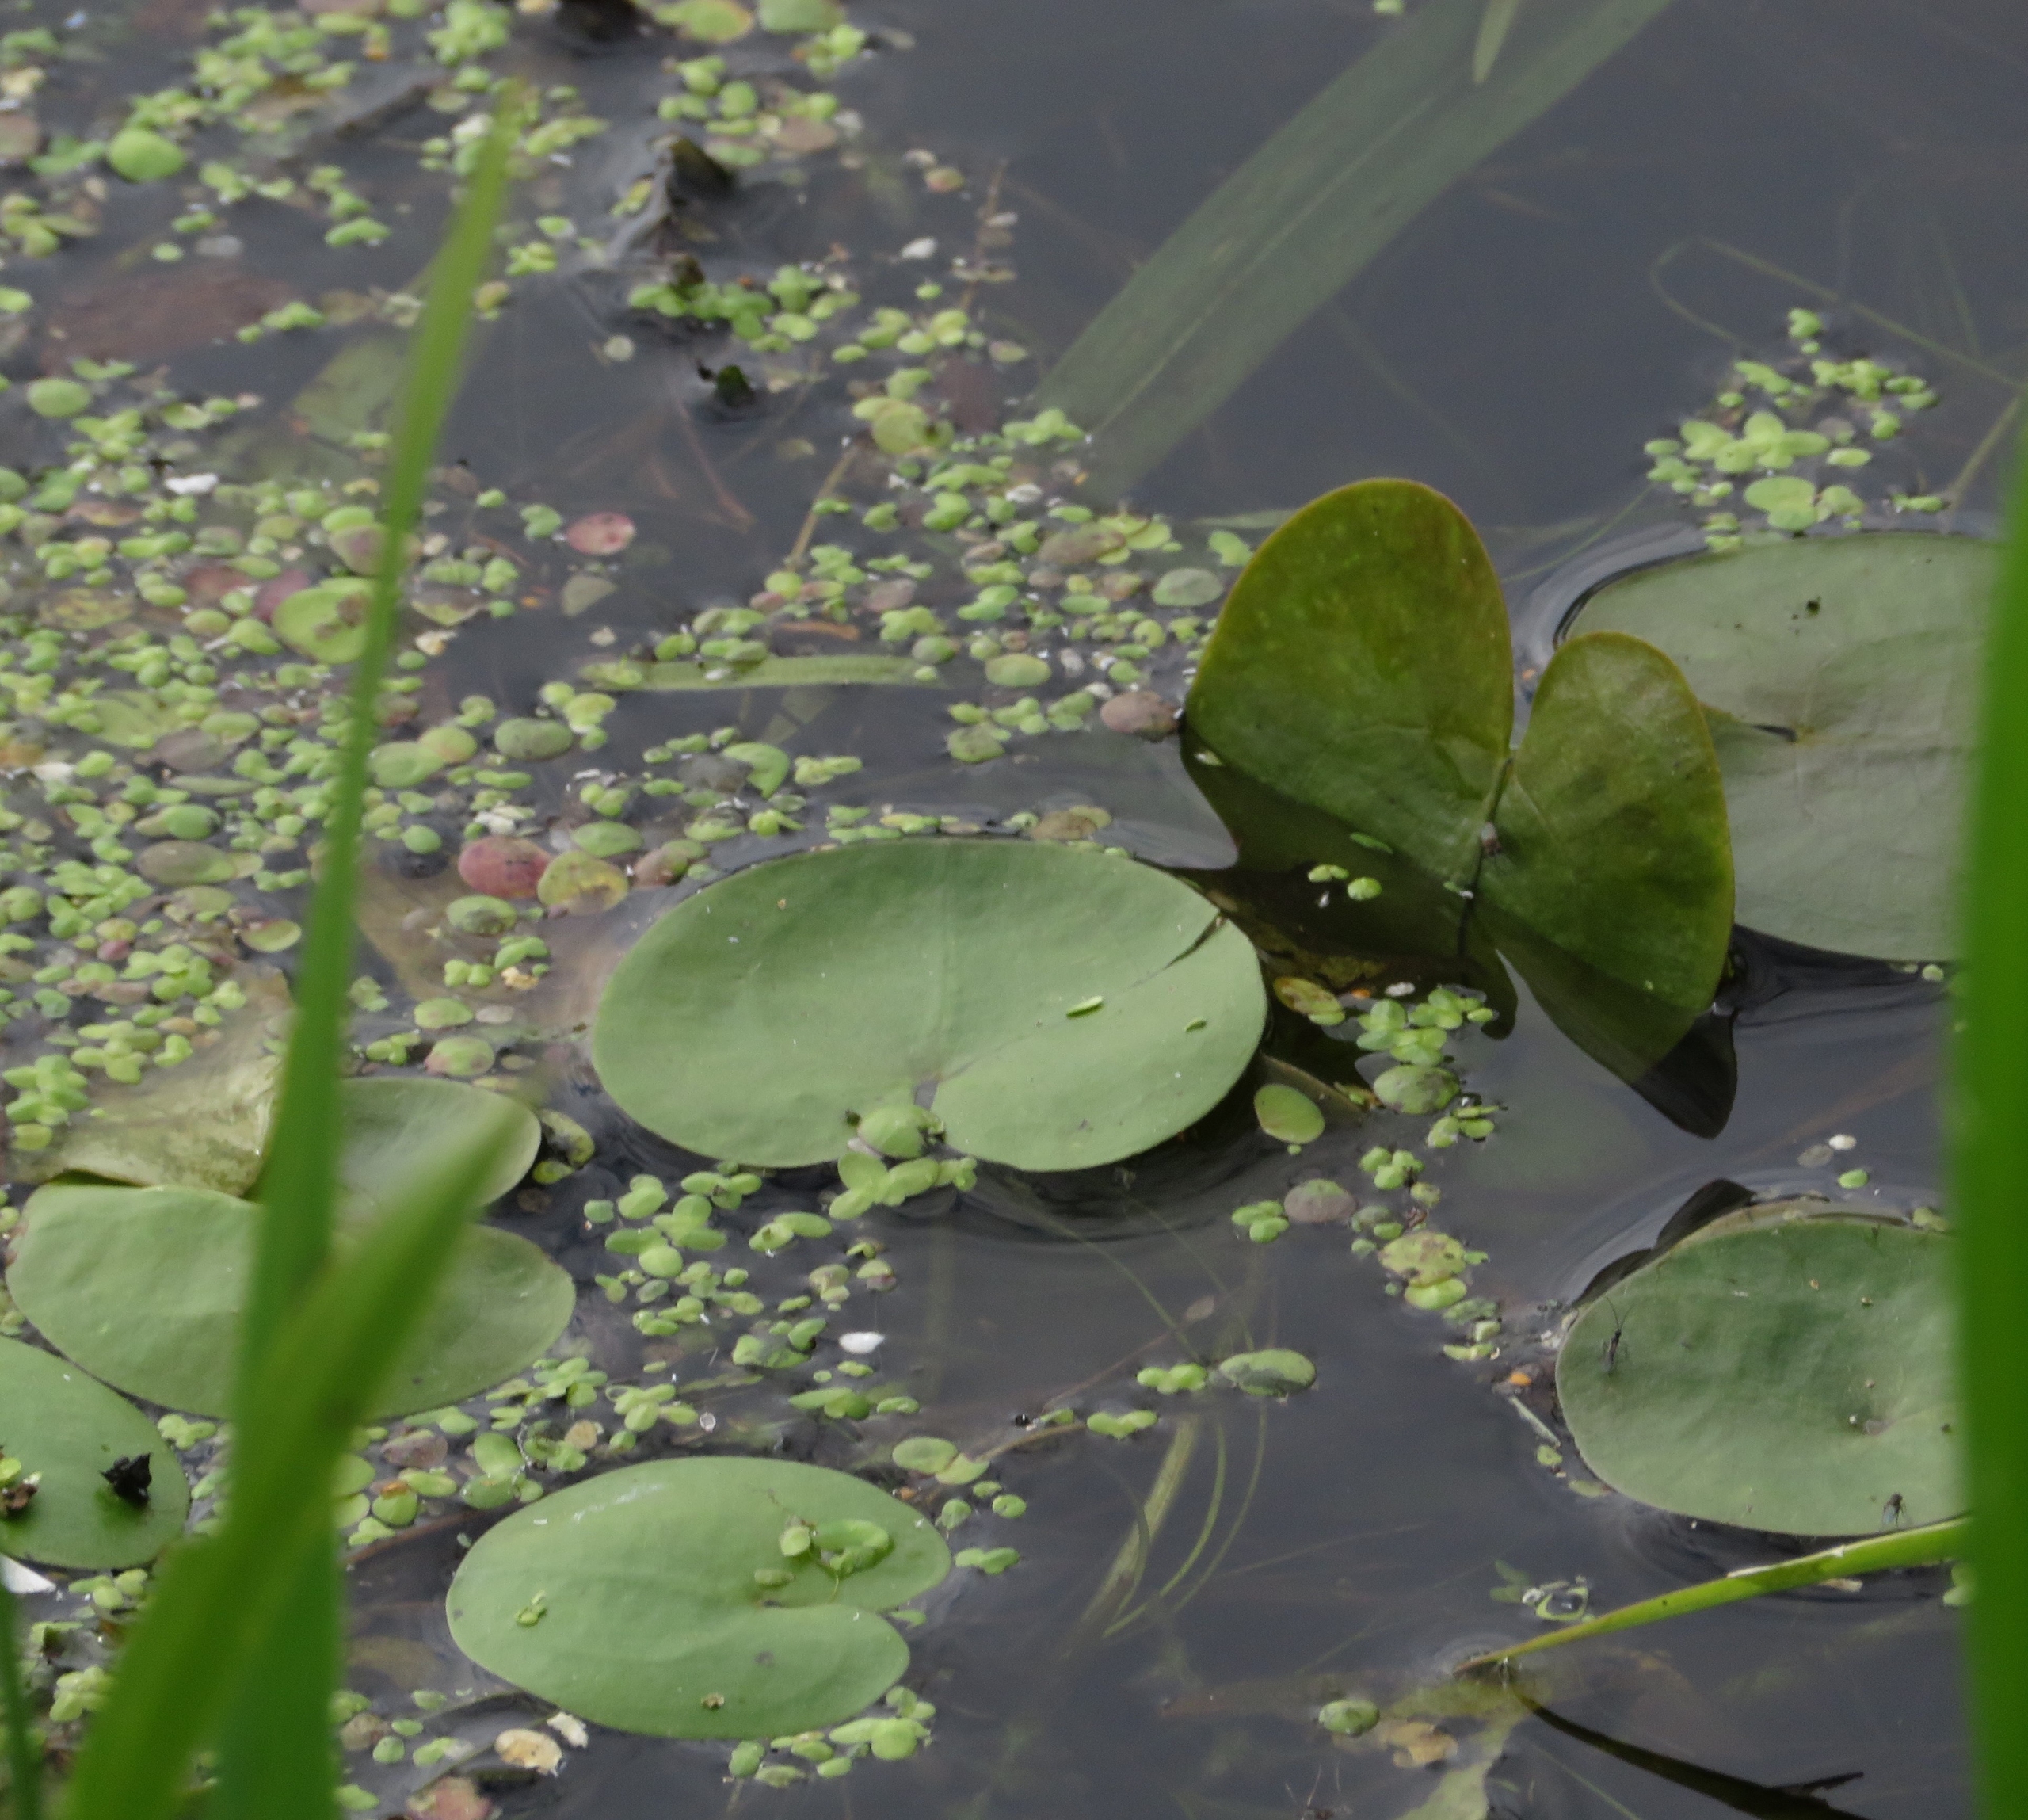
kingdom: Plantae
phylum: Tracheophyta
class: Liliopsida
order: Alismatales
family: Hydrocharitaceae
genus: Hydrocharis
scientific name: Hydrocharis morsus-ranae
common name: Frøbid
